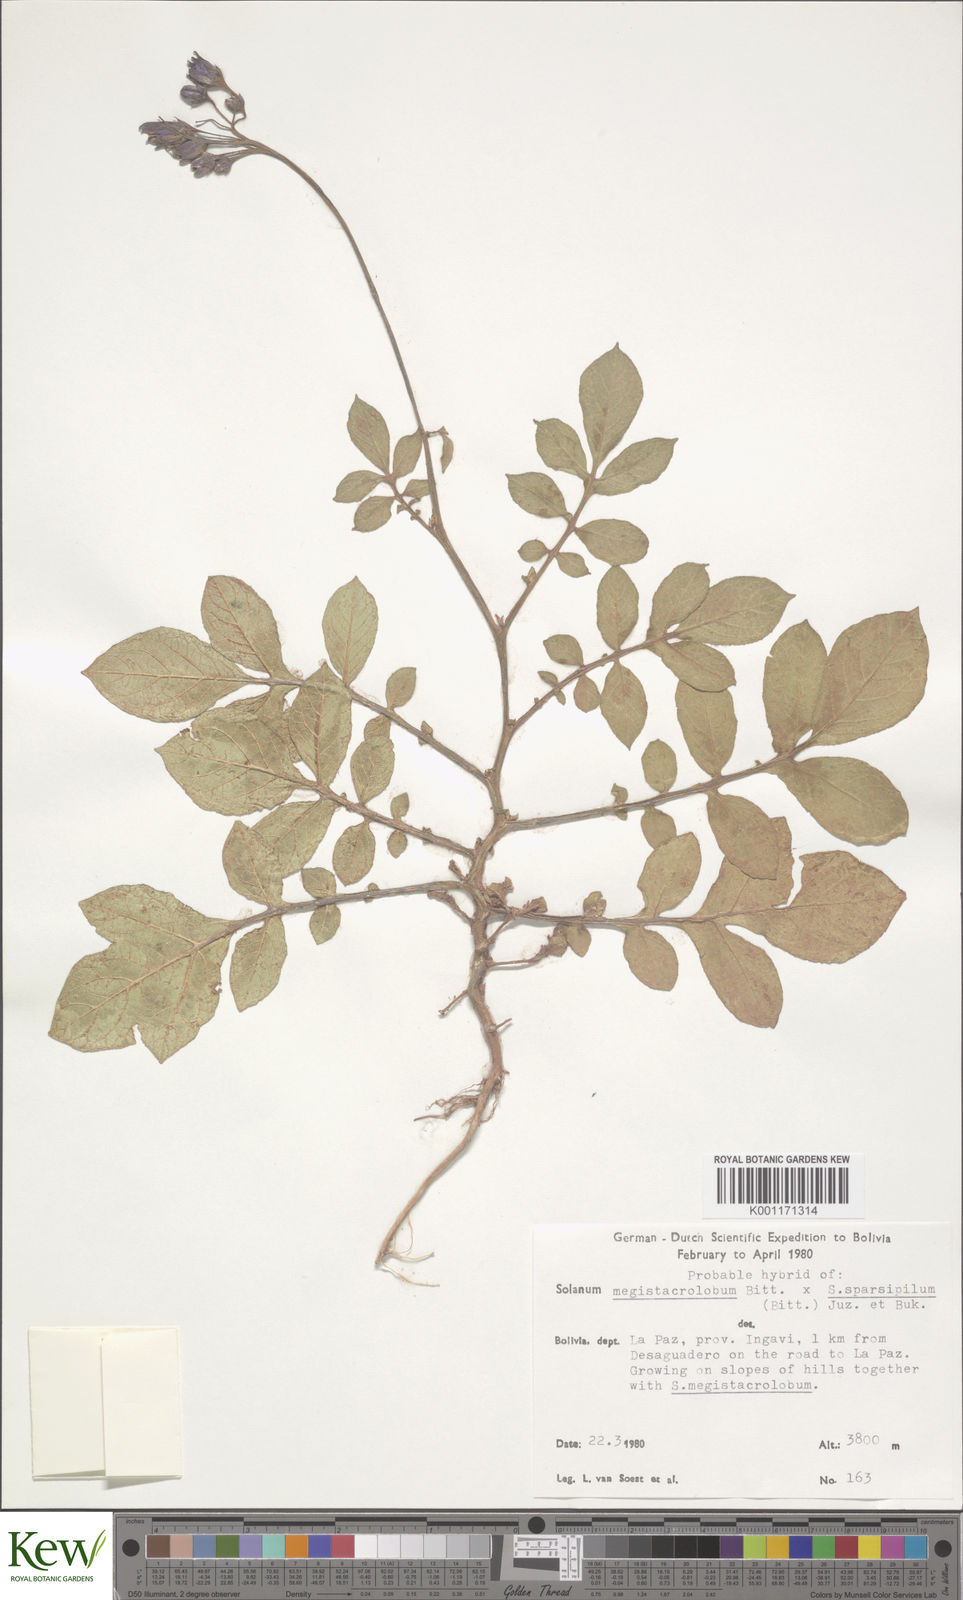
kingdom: Plantae
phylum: Tracheophyta
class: Magnoliopsida
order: Solanales
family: Solanaceae
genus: Solanum
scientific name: Solanum boliviense
